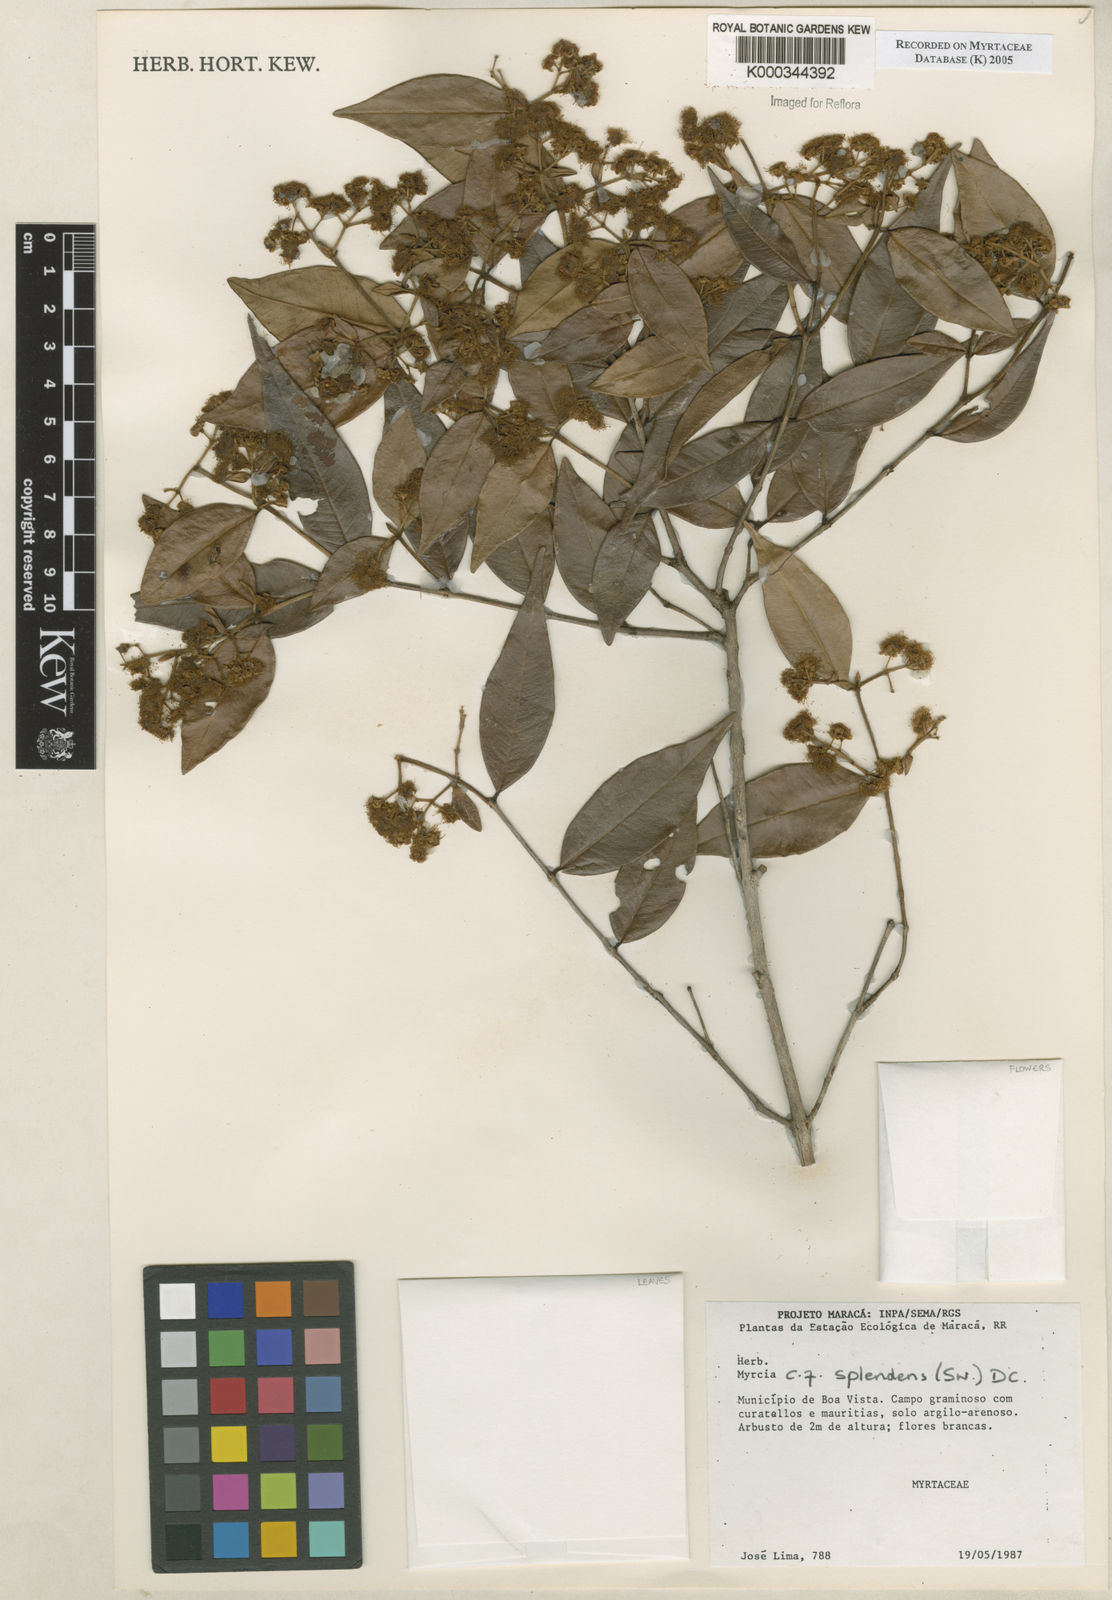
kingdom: Plantae
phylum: Tracheophyta
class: Magnoliopsida
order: Myrtales
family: Myrtaceae
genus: Myrcia
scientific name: Myrcia splendens
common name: Surinam cherry
